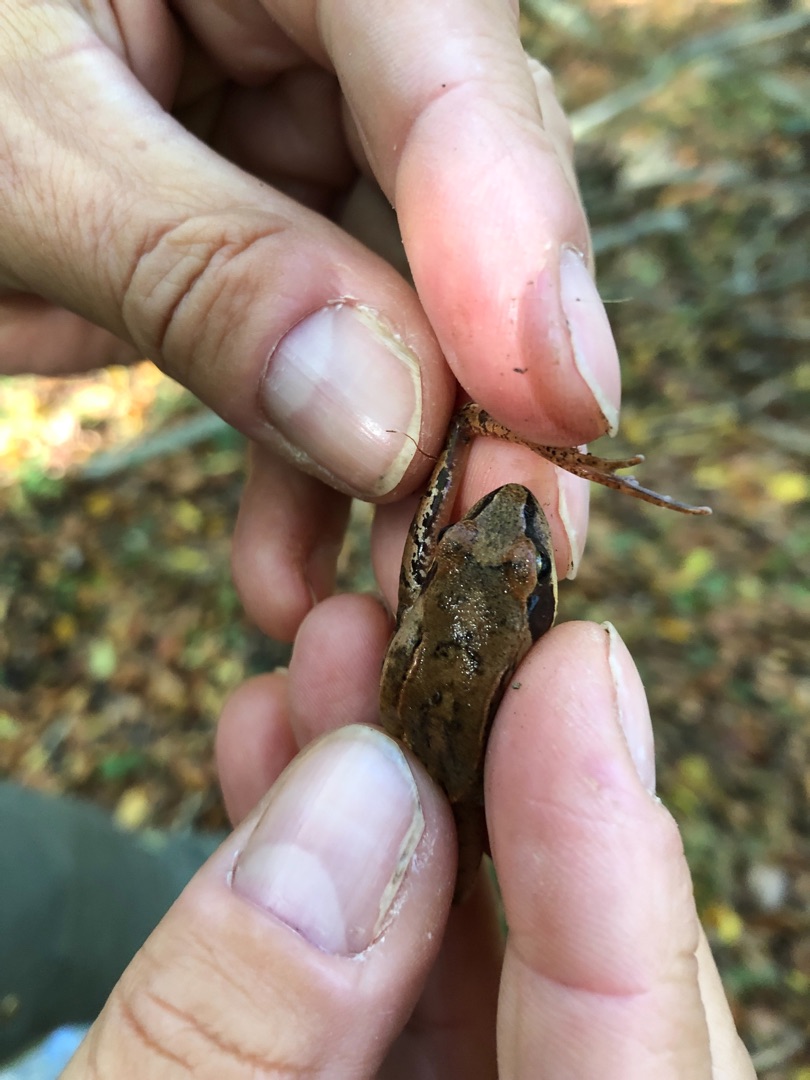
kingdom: Animalia
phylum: Chordata
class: Amphibia
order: Anura
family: Ranidae
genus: Rana
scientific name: Rana dalmatina
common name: Springfrø
